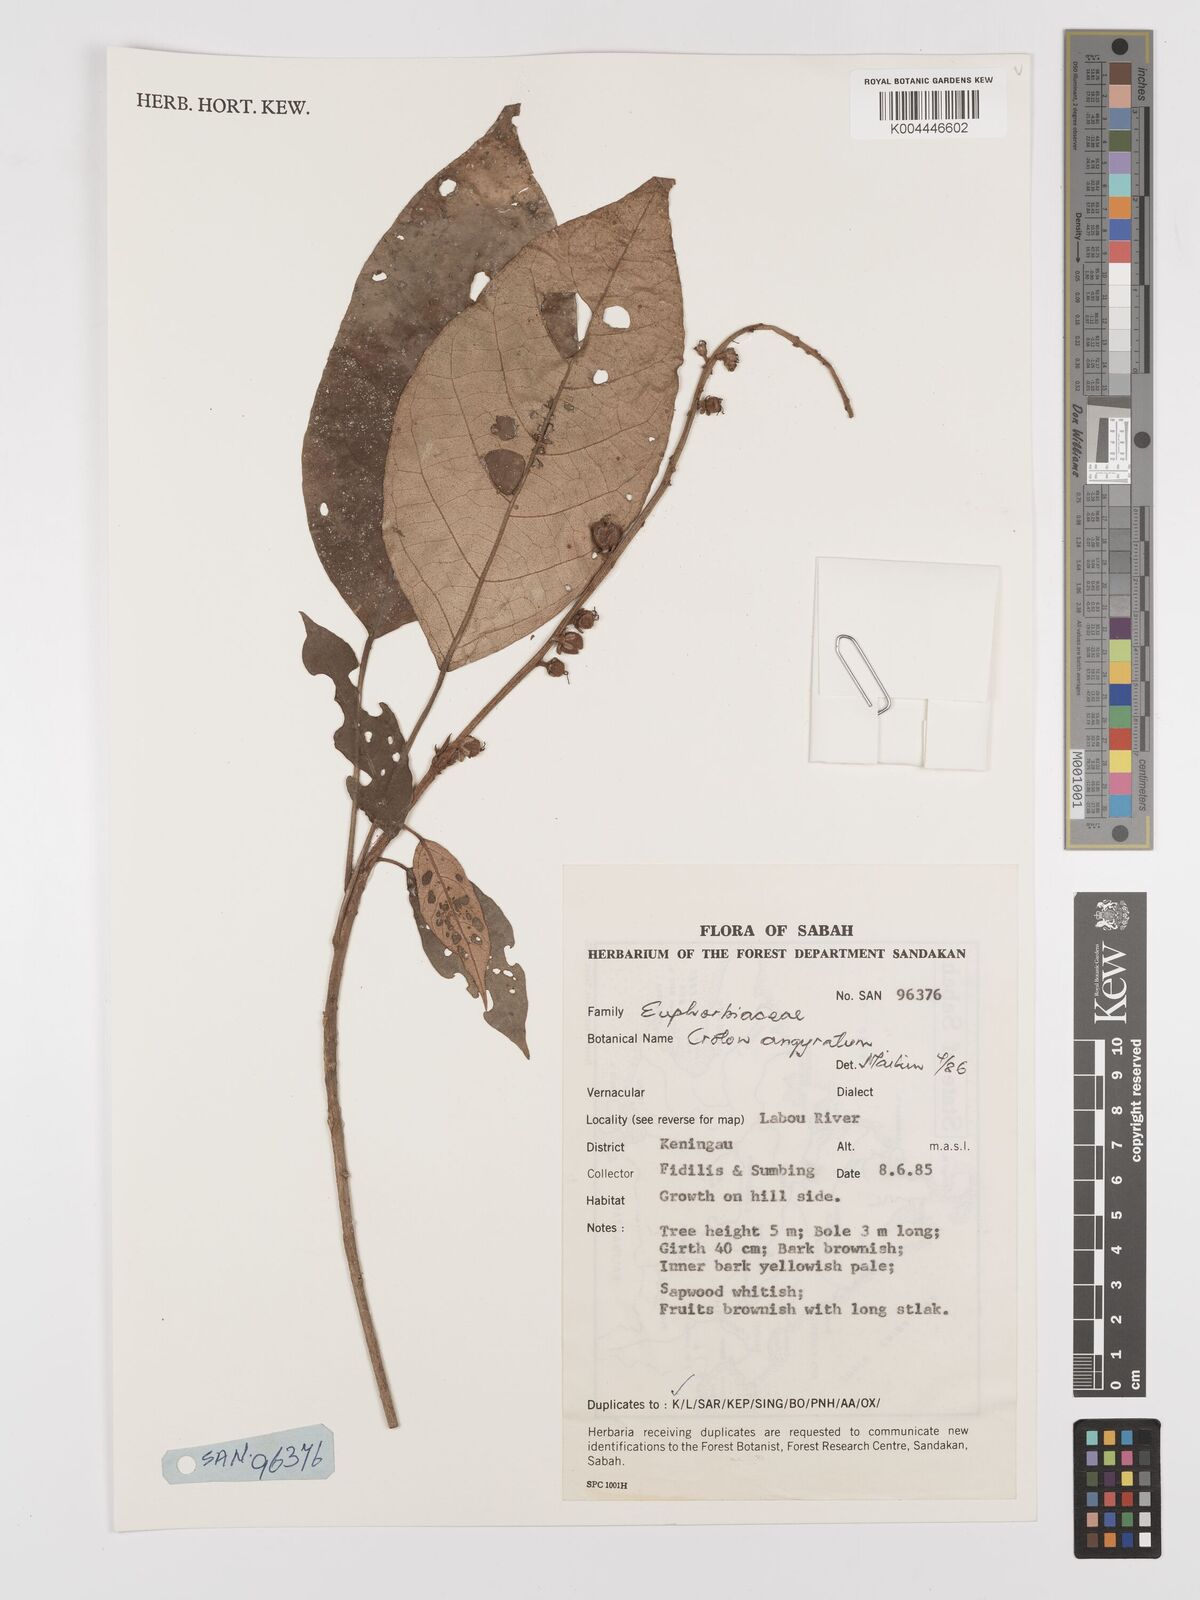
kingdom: Plantae
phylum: Tracheophyta
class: Magnoliopsida
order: Malpighiales
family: Euphorbiaceae
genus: Croton
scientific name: Croton argyratus
